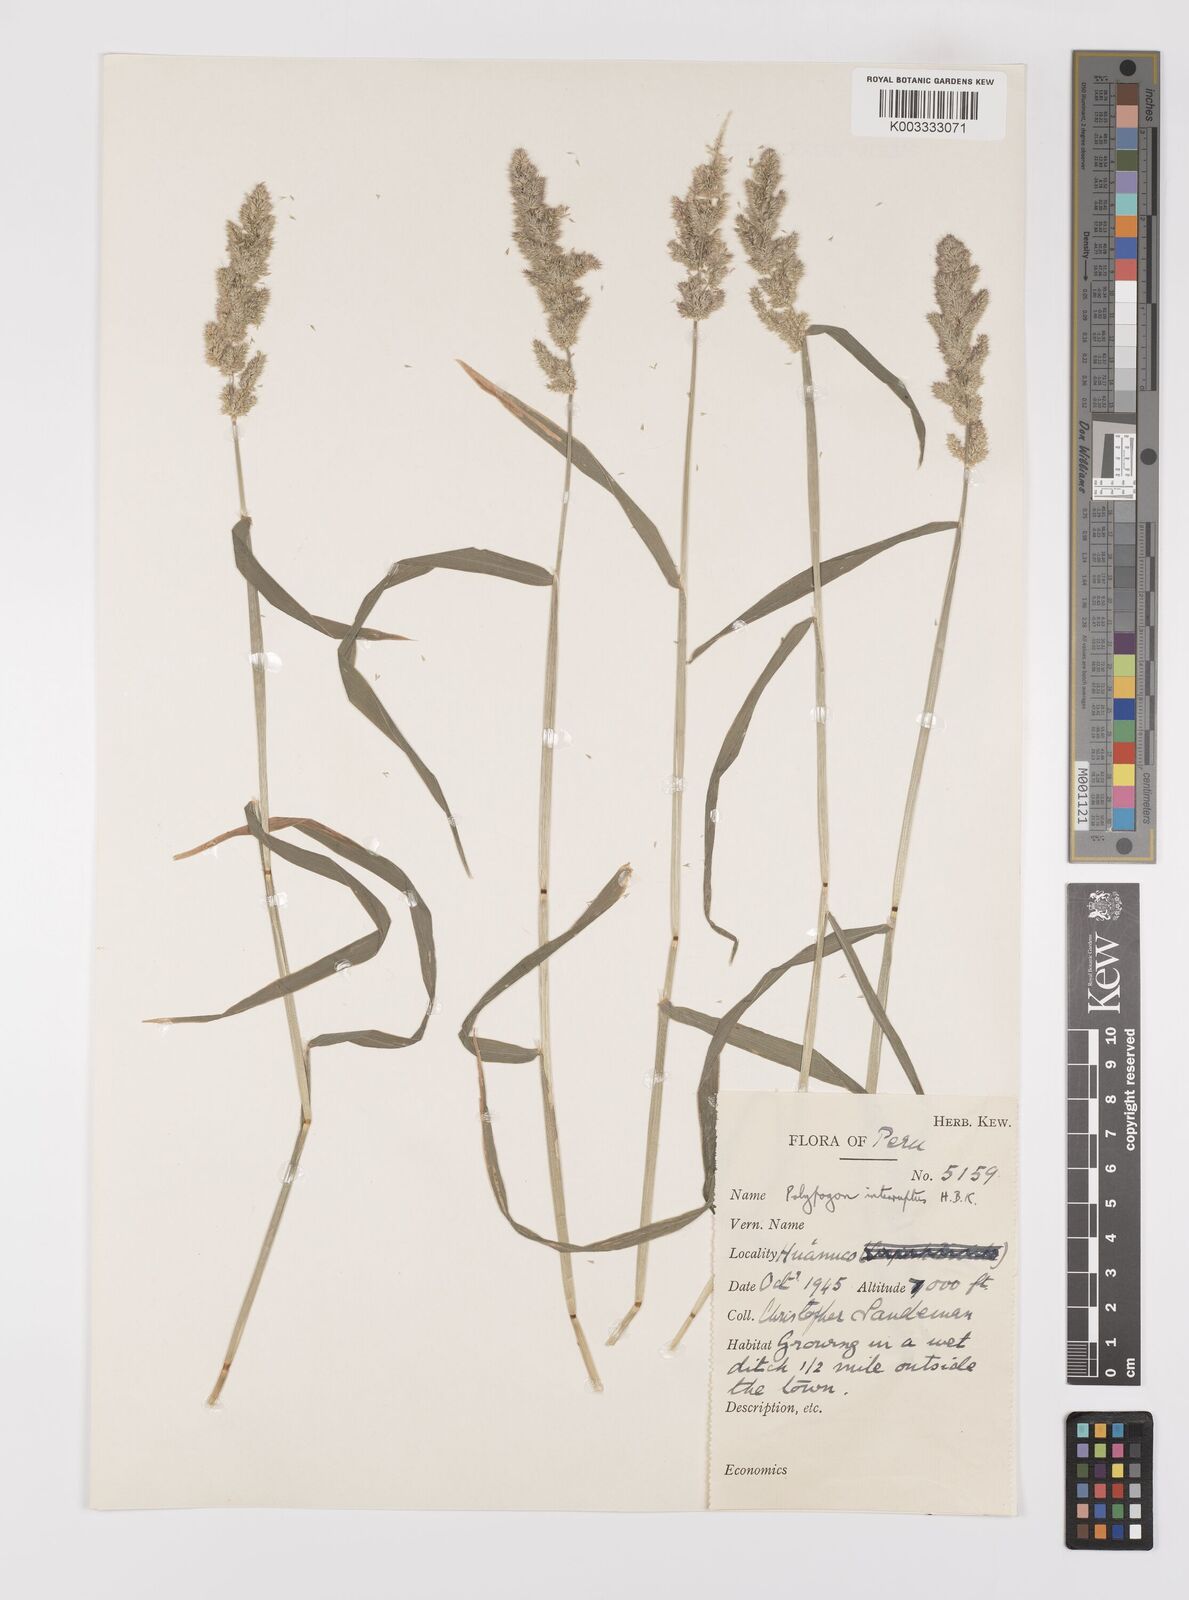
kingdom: Plantae
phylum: Tracheophyta
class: Liliopsida
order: Poales
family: Poaceae
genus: Polypogon
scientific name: Polypogon interruptus
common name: Ditch polypogon
